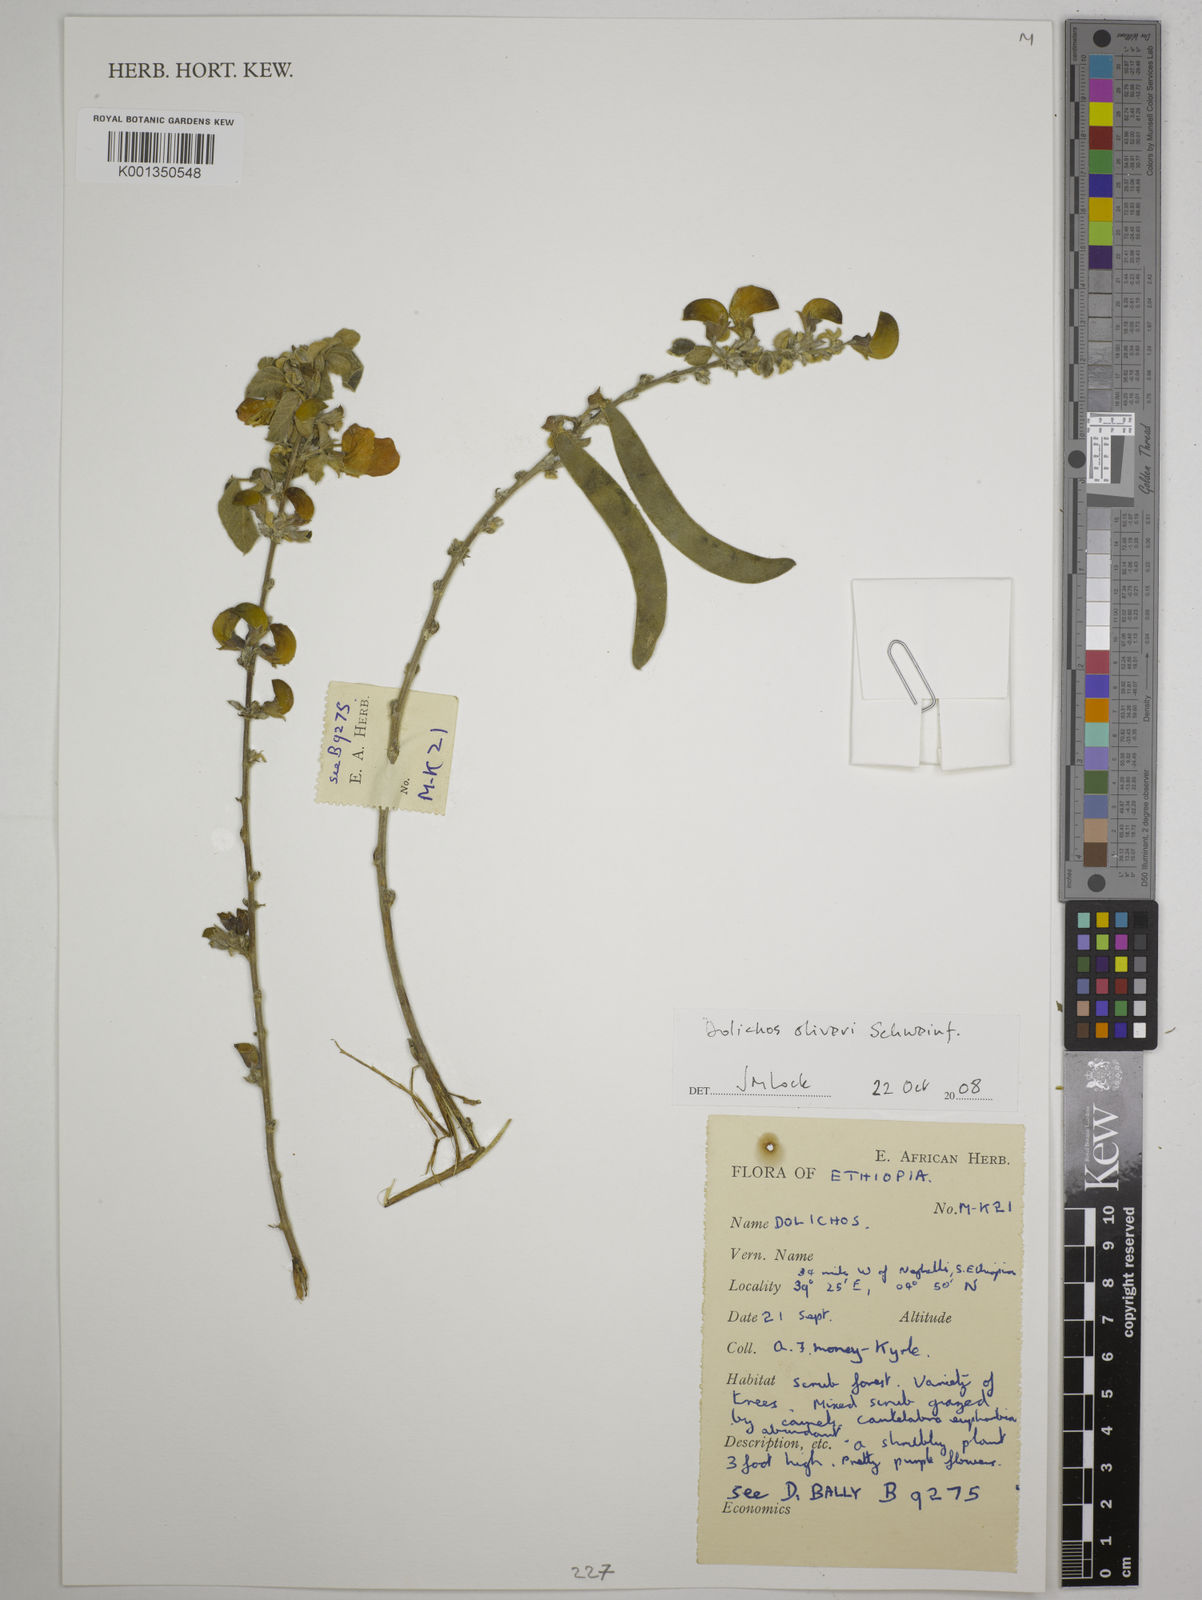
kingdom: Plantae
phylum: Tracheophyta
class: Magnoliopsida
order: Fabales
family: Fabaceae
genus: Dolichos
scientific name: Dolichos oliveri
